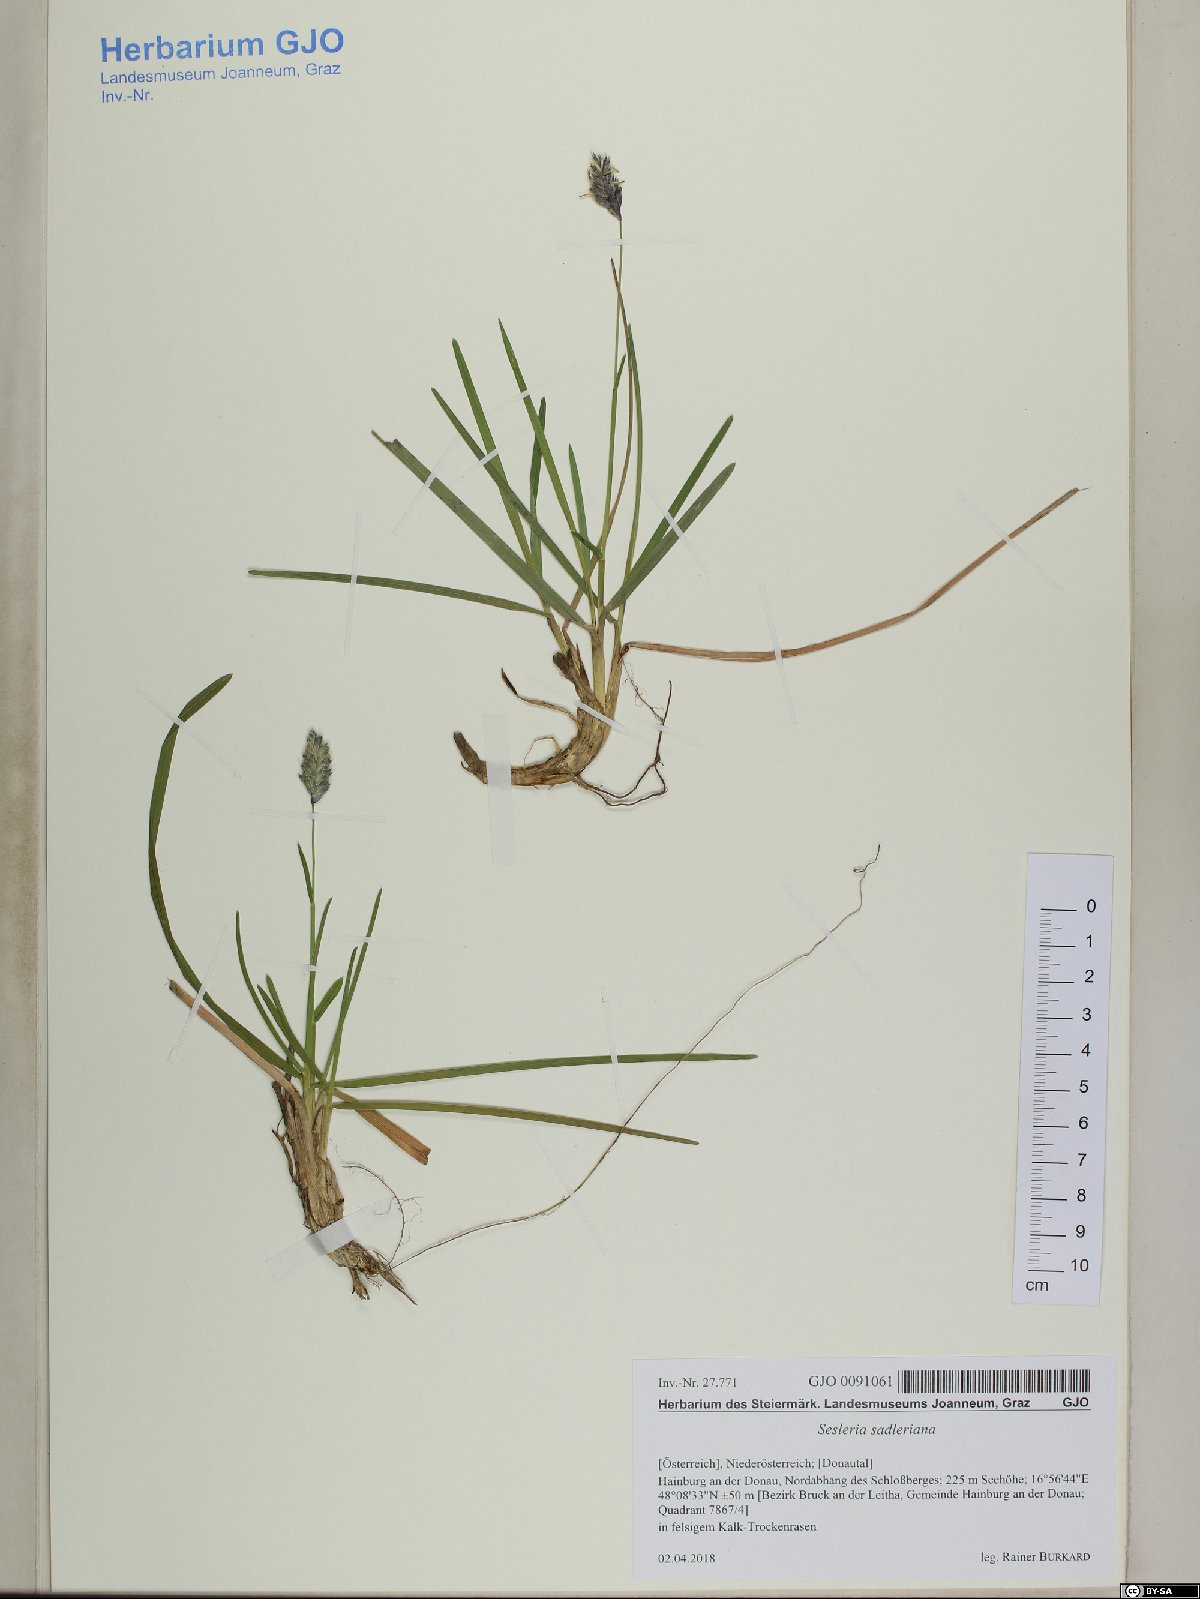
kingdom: Plantae
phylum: Tracheophyta
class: Liliopsida
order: Poales
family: Poaceae
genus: Sesleria
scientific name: Sesleria sadleriana
